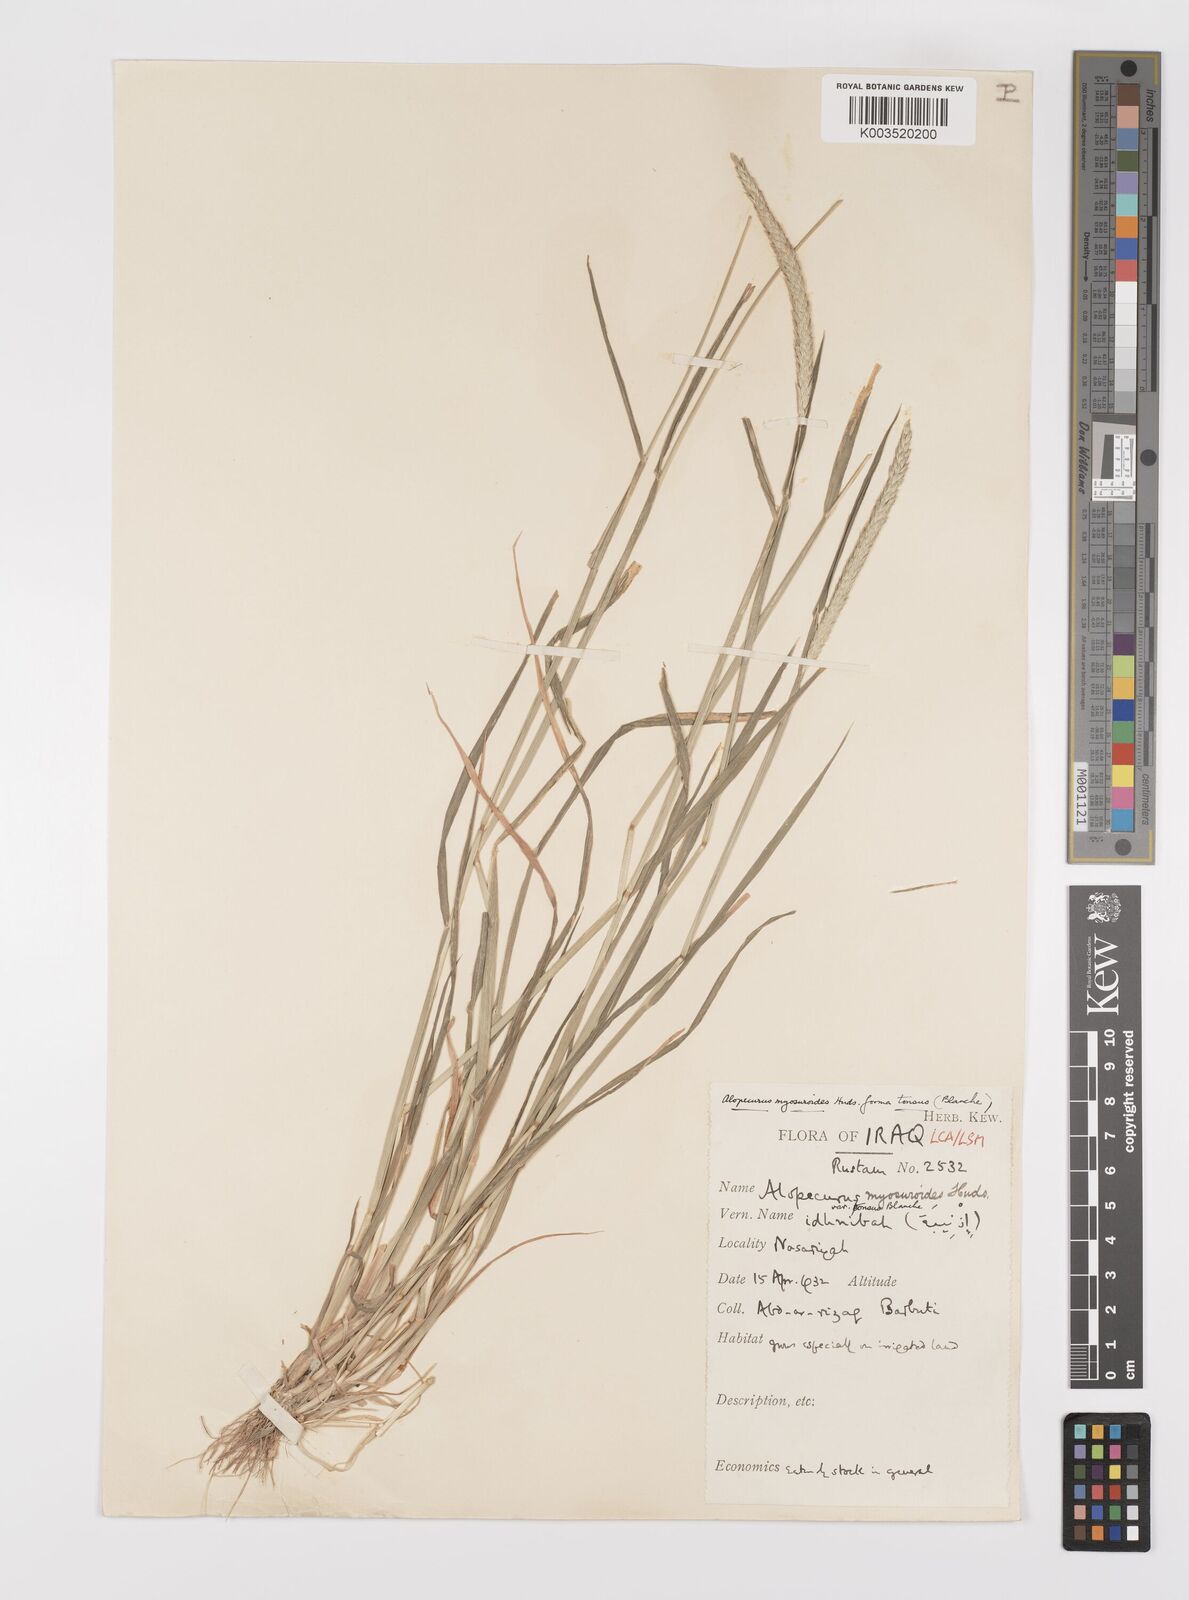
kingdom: Plantae
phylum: Tracheophyta
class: Liliopsida
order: Poales
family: Poaceae
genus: Alopecurus
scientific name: Alopecurus myosuroides
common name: Black-grass
